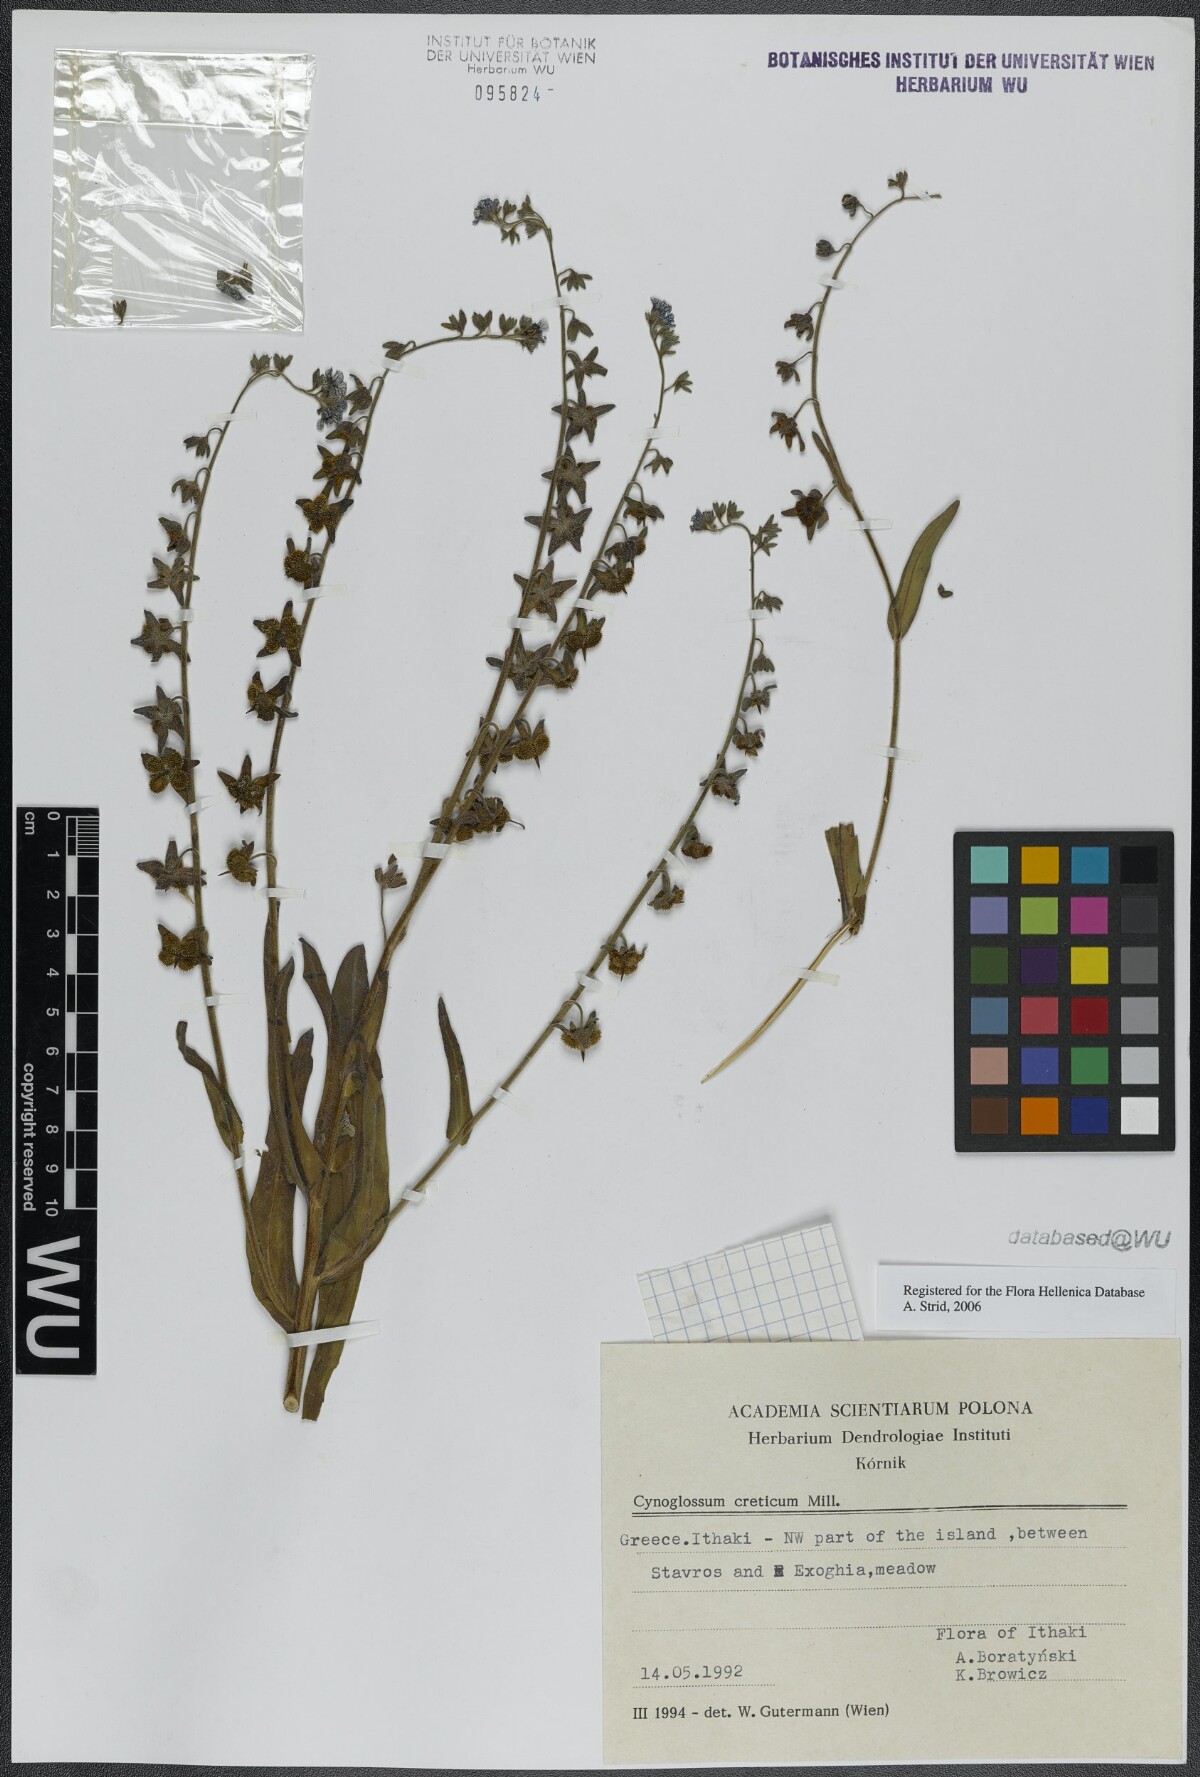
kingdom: Plantae
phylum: Tracheophyta
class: Magnoliopsida
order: Boraginales
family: Boraginaceae
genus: Cynoglossum
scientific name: Cynoglossum creticum
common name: Blue hound's tongue
